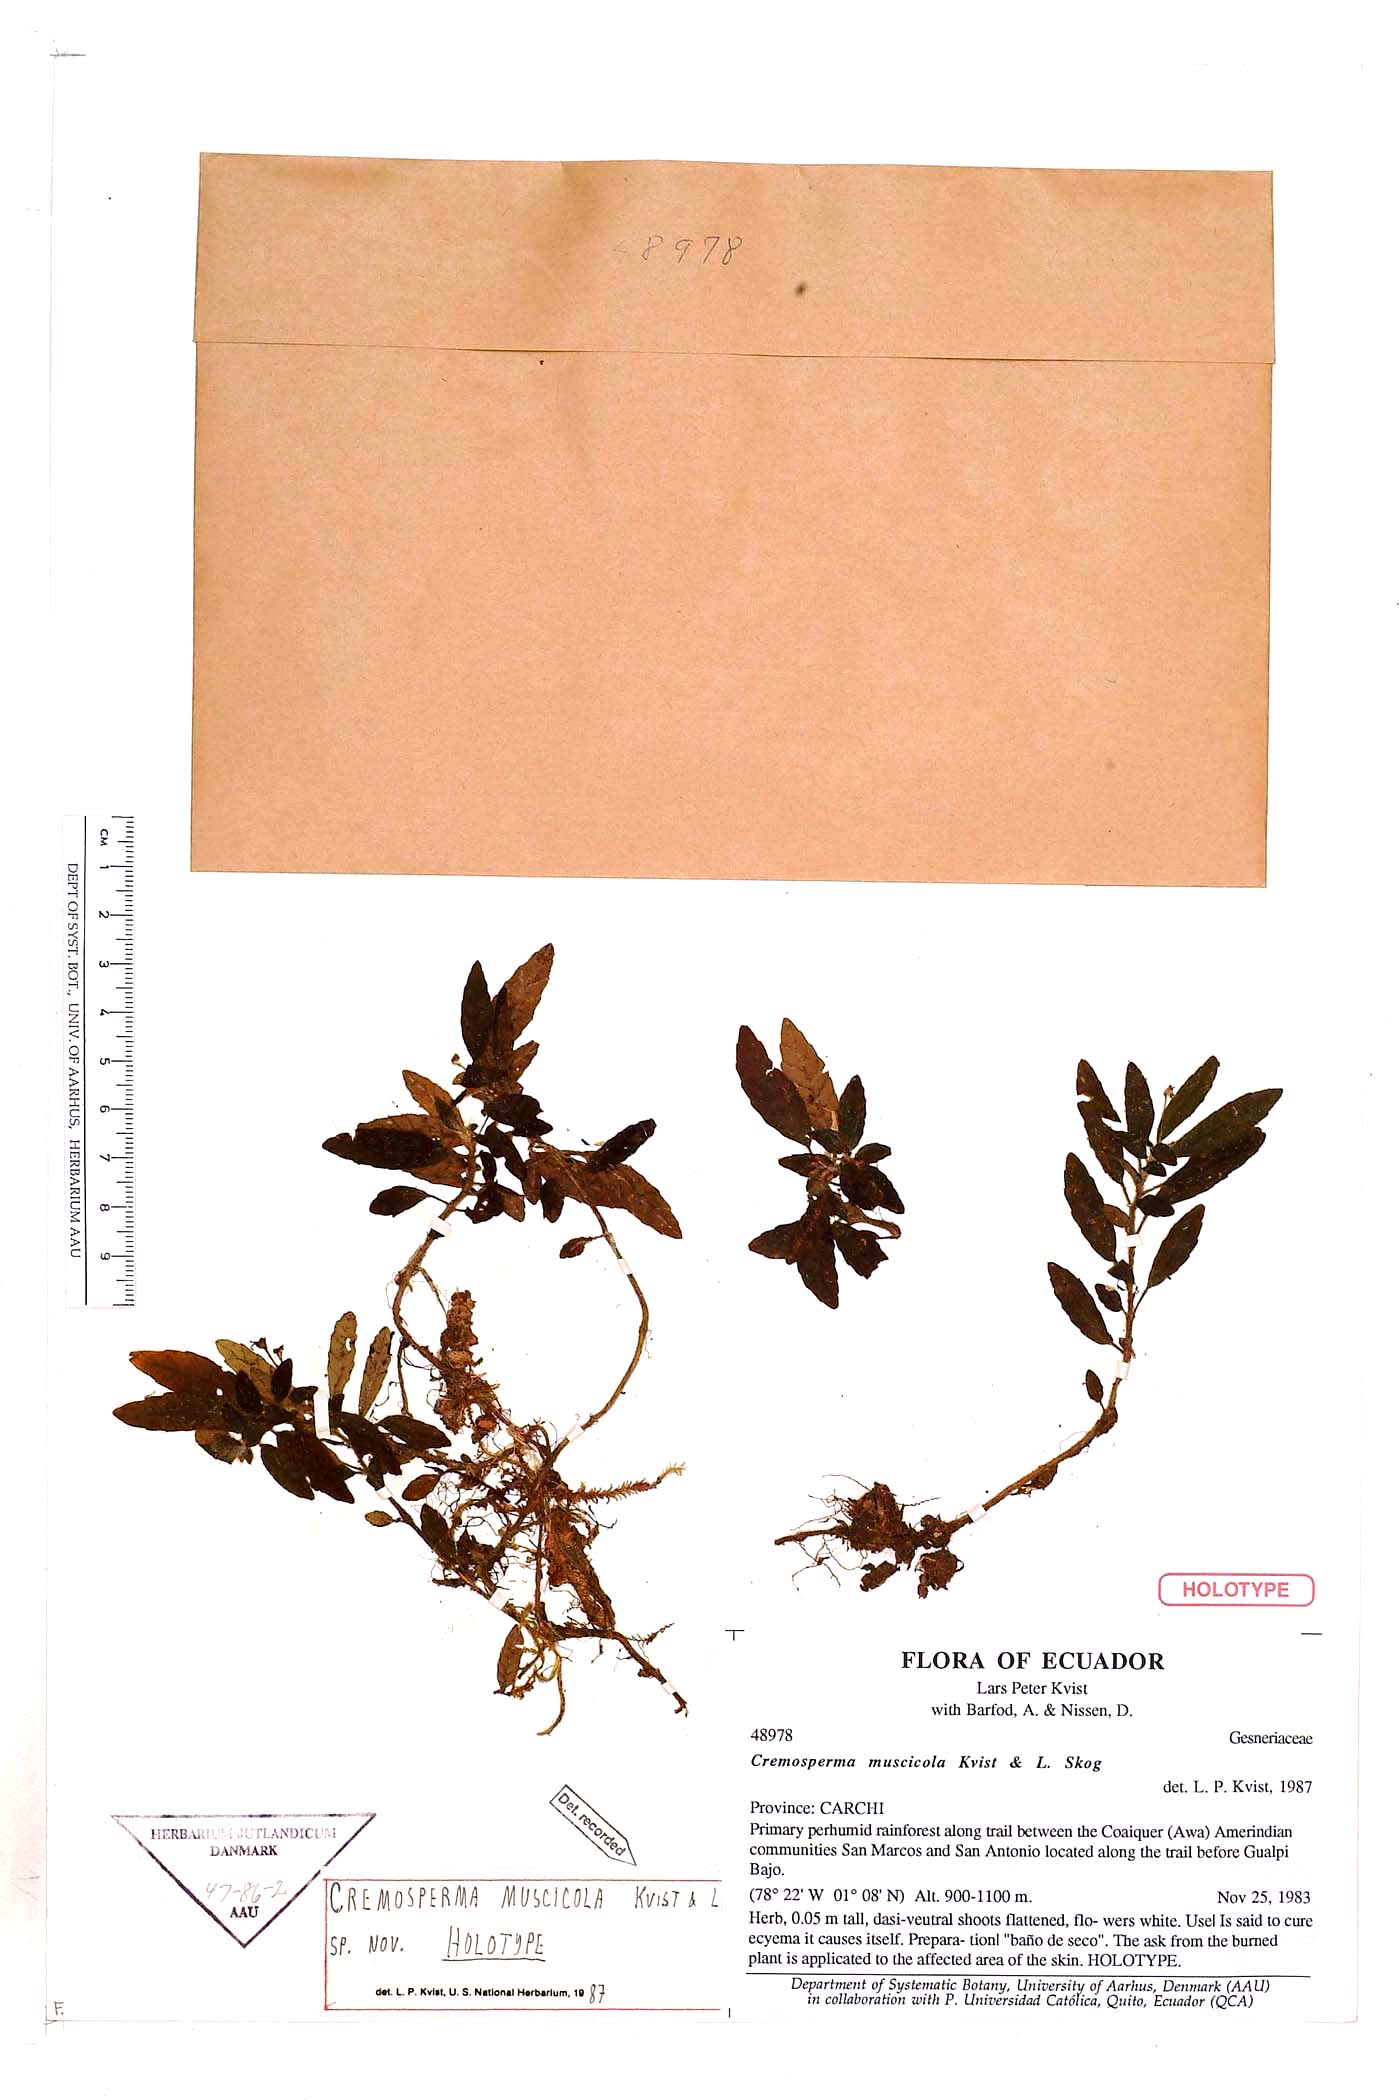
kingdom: Plantae
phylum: Tracheophyta
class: Magnoliopsida
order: Lamiales
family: Gesneriaceae
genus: Cremosperma
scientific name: Cremosperma muscicola
